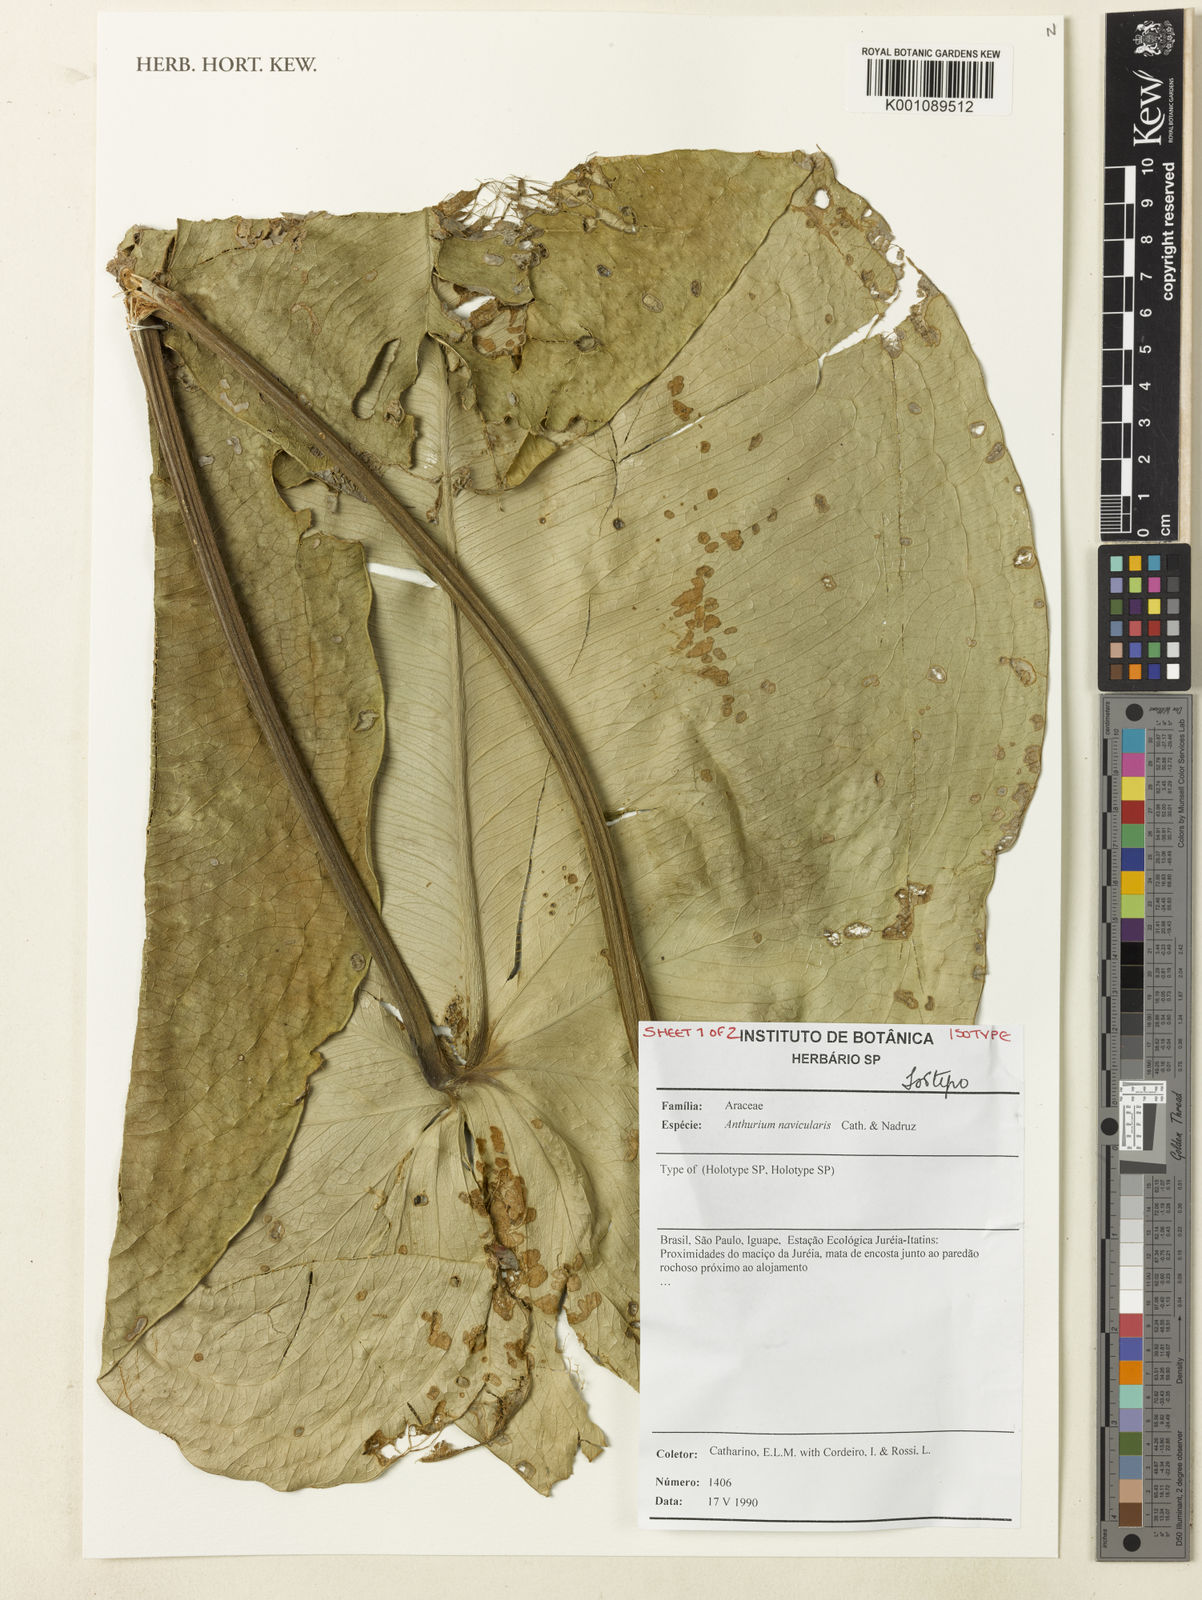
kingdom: Plantae
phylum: Tracheophyta
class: Liliopsida
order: Alismatales
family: Araceae
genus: Anthurium
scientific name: Anthurium naviculare
